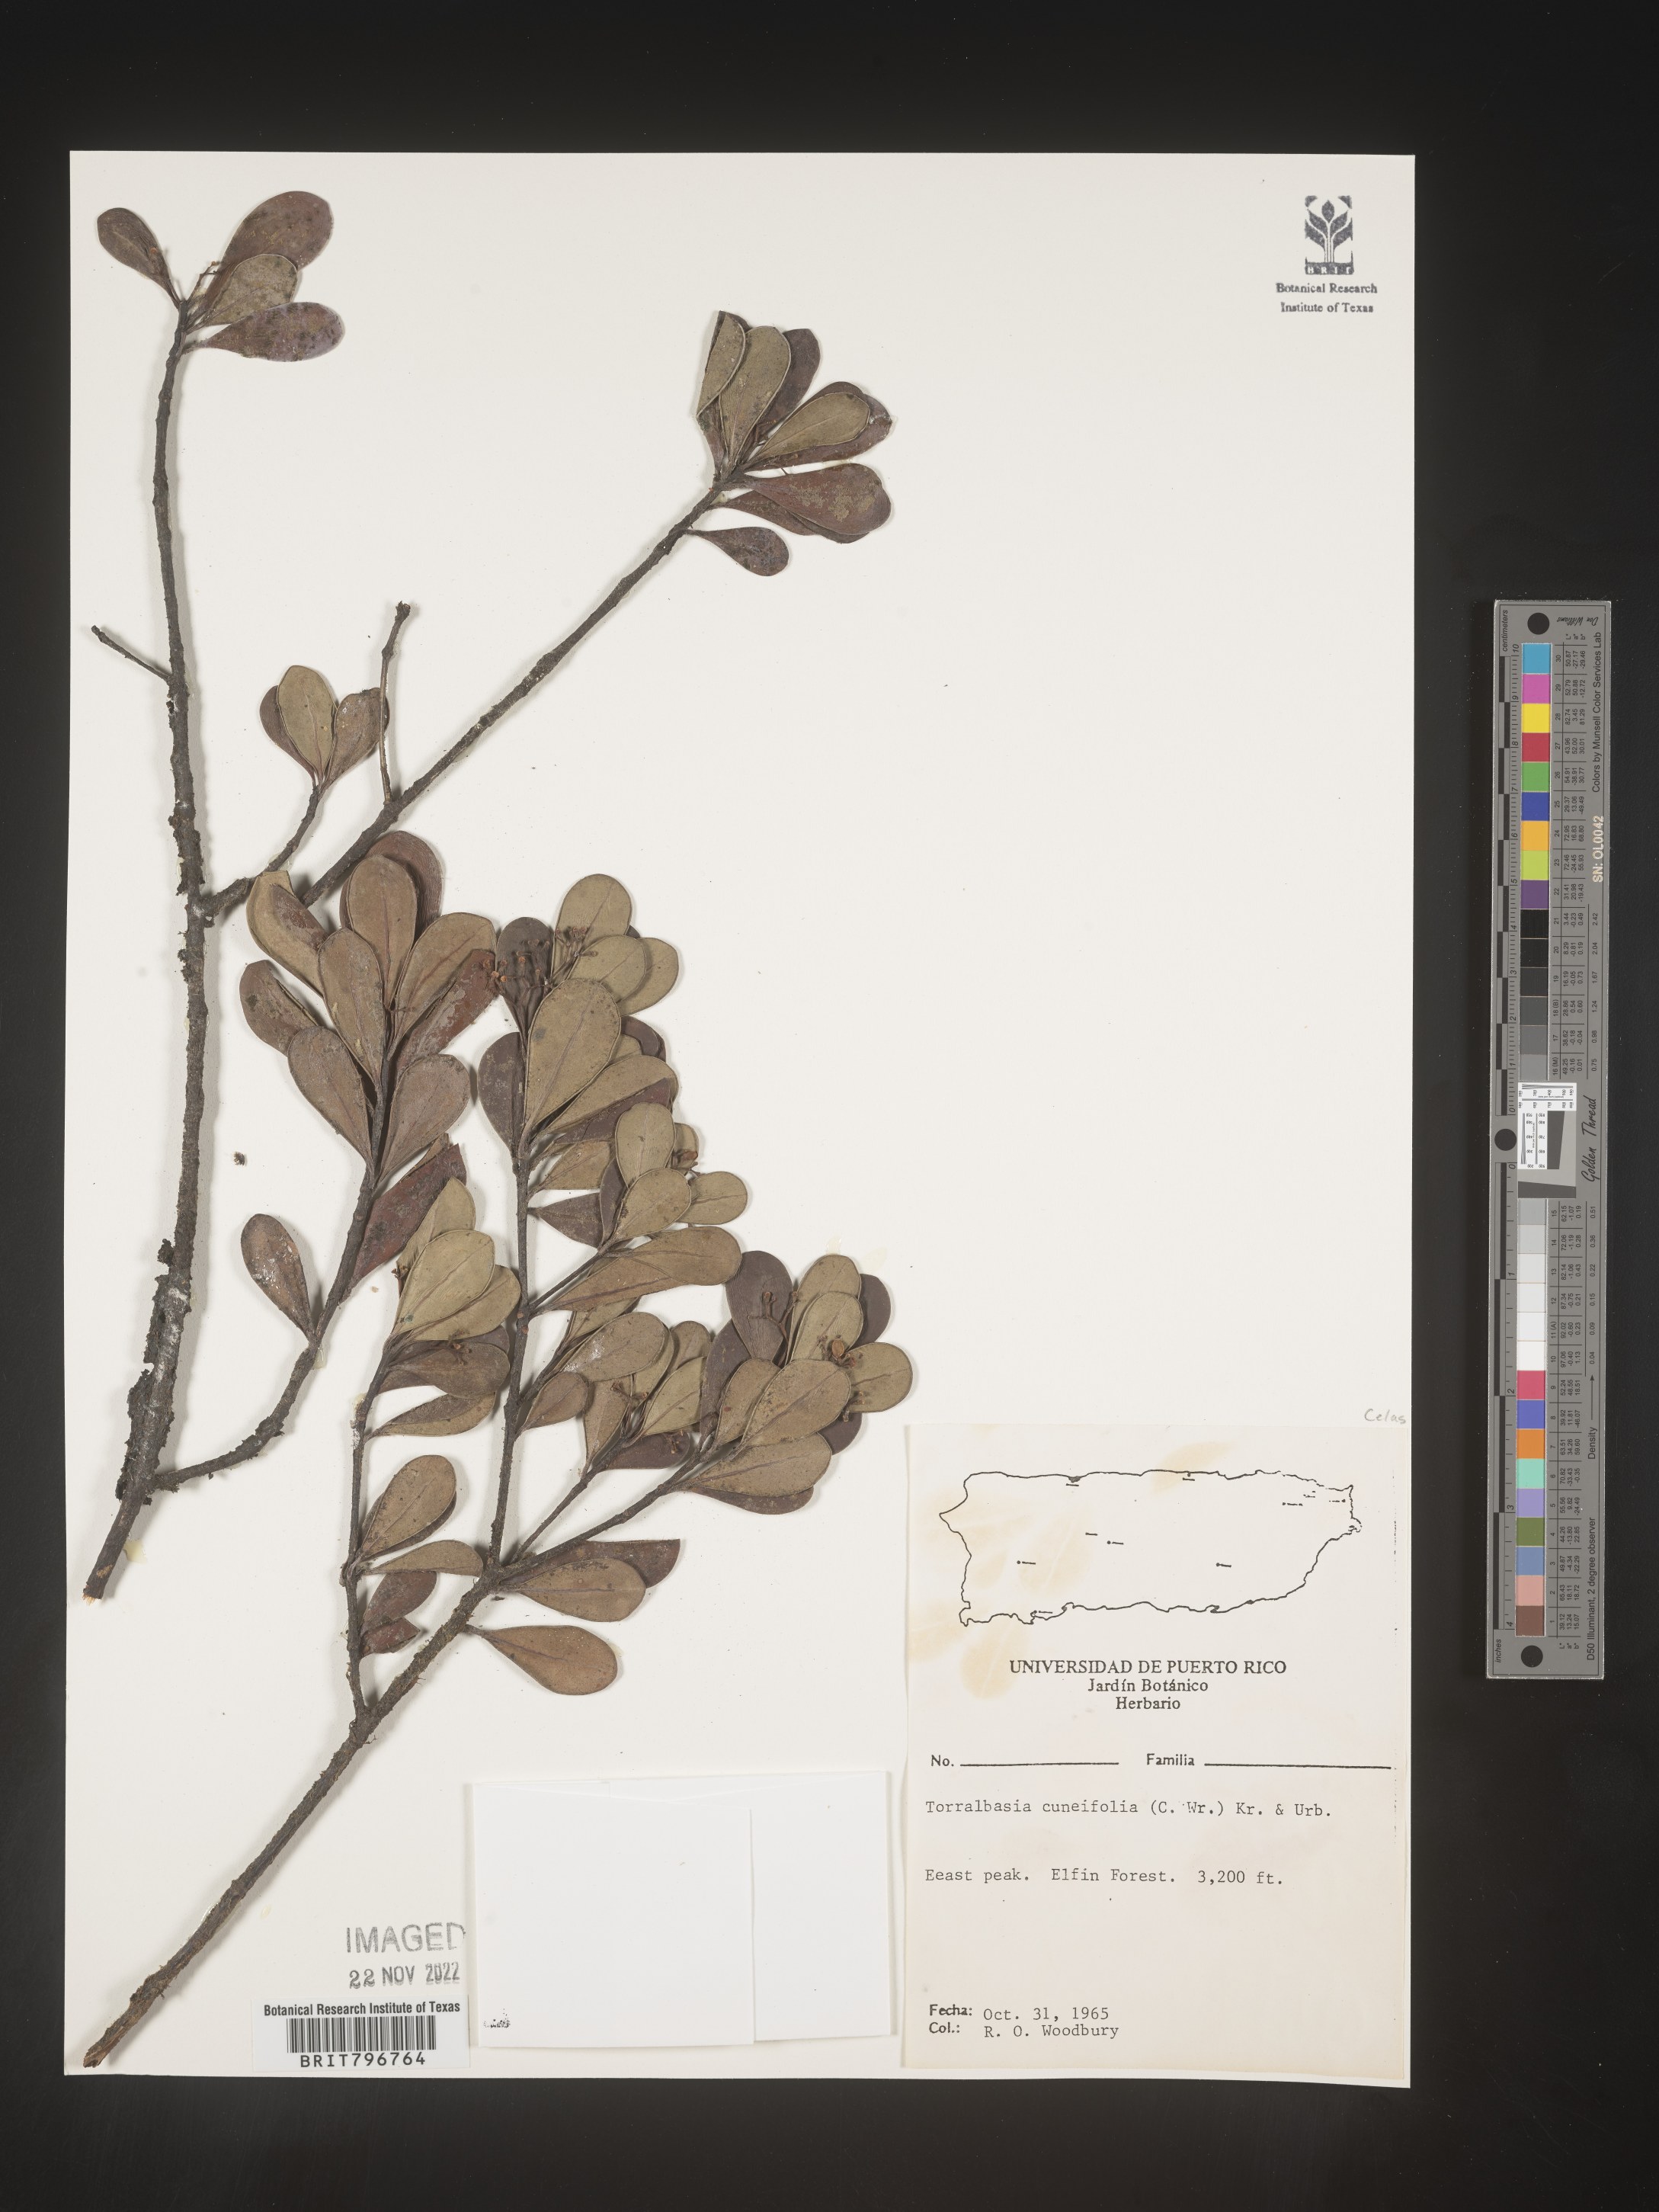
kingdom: Plantae
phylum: Tracheophyta
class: Magnoliopsida
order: Celastrales
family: Celastraceae
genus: Torralbasia
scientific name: Torralbasia
